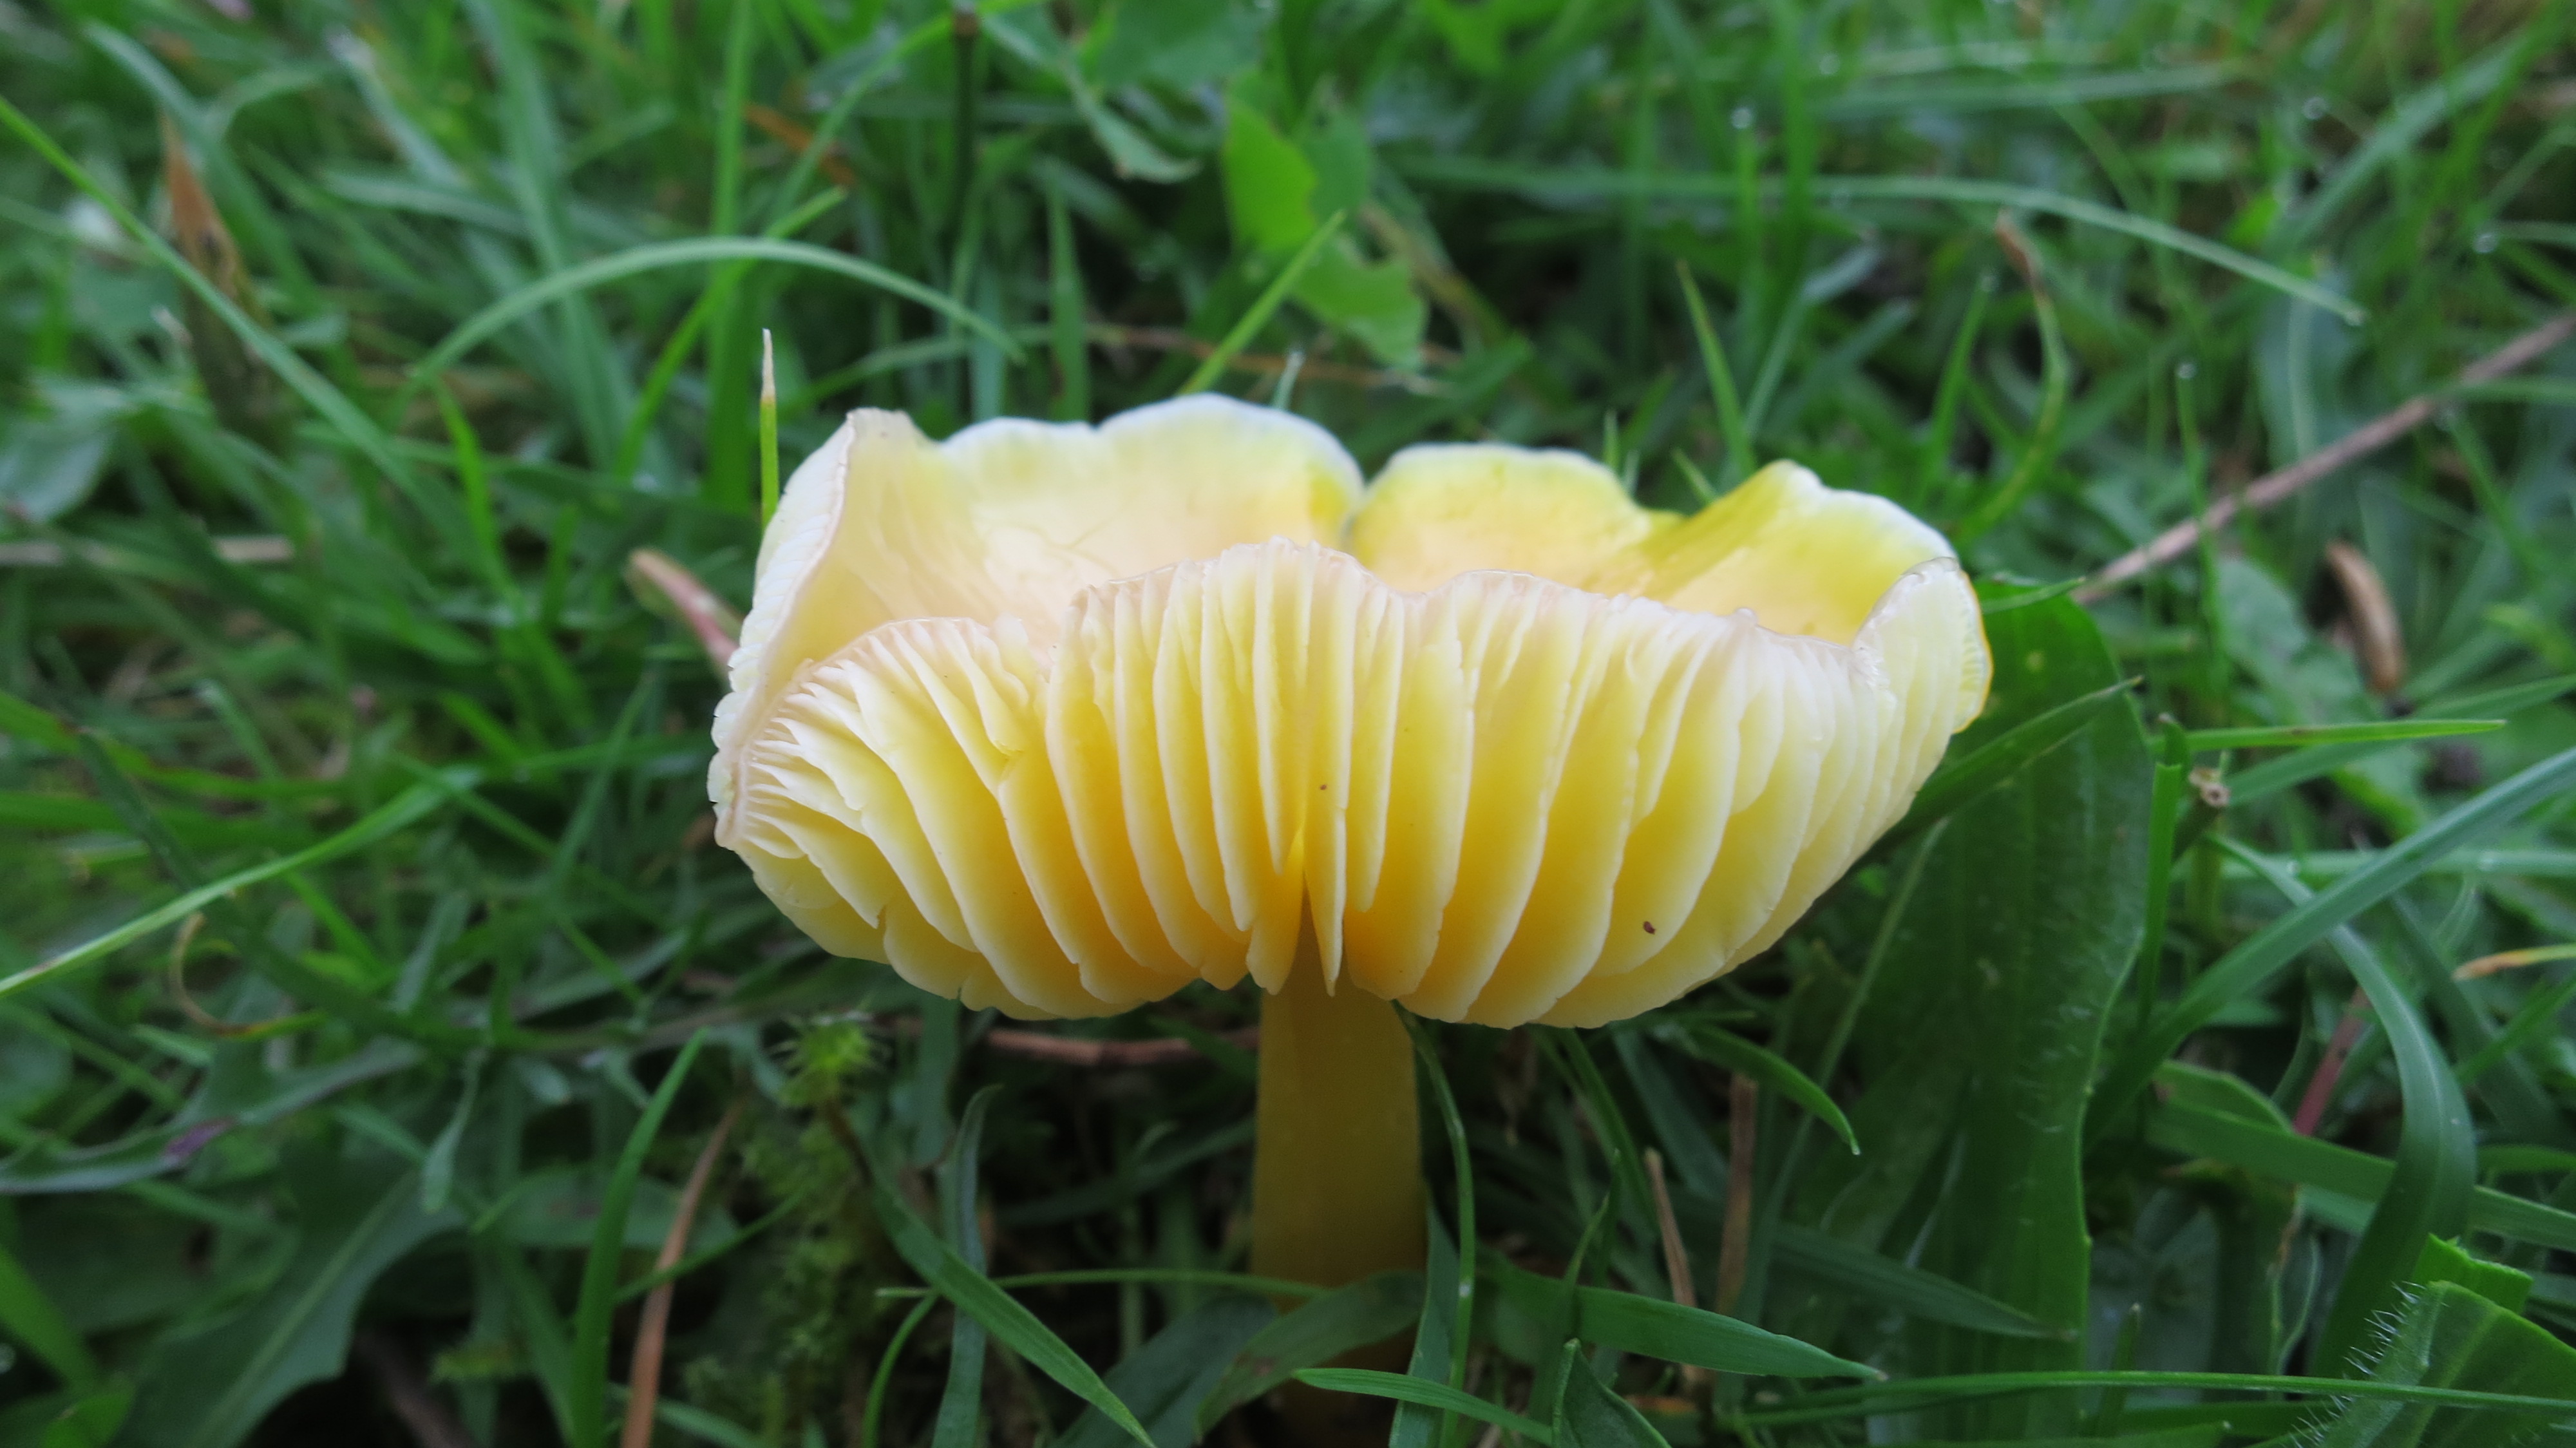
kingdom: Fungi
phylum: Basidiomycota
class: Agaricomycetes
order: Agaricales
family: Hygrophoraceae
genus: Hygrocybe
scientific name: Hygrocybe chlorophana
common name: gul vokshat
